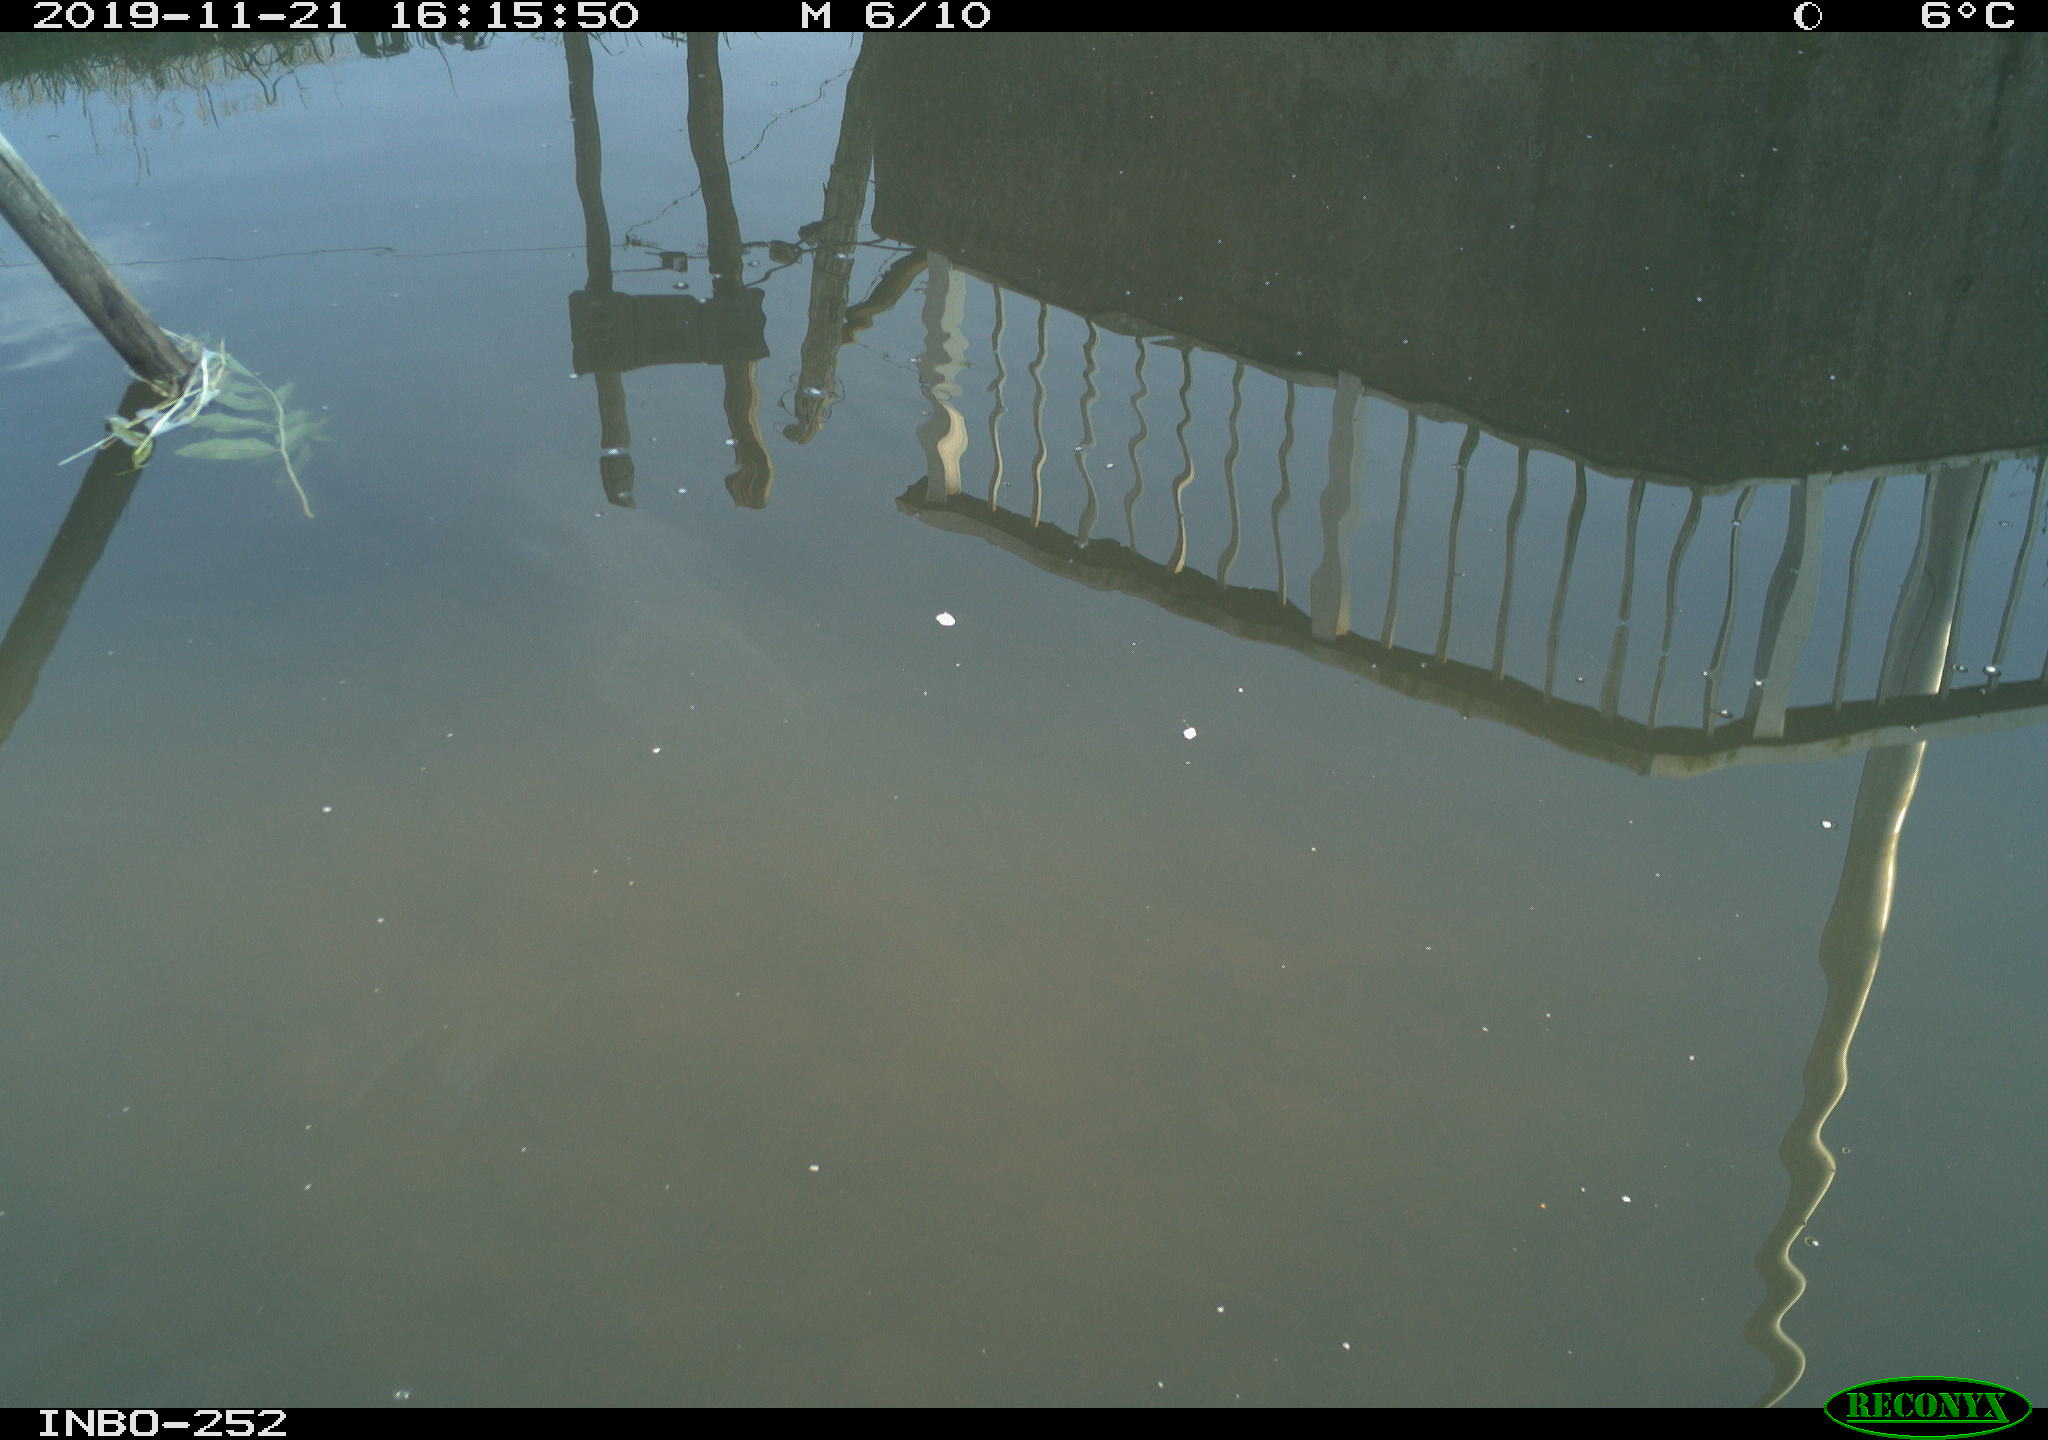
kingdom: Animalia
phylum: Chordata
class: Aves
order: Gruiformes
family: Rallidae
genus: Gallinula
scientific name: Gallinula chloropus
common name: Common moorhen
